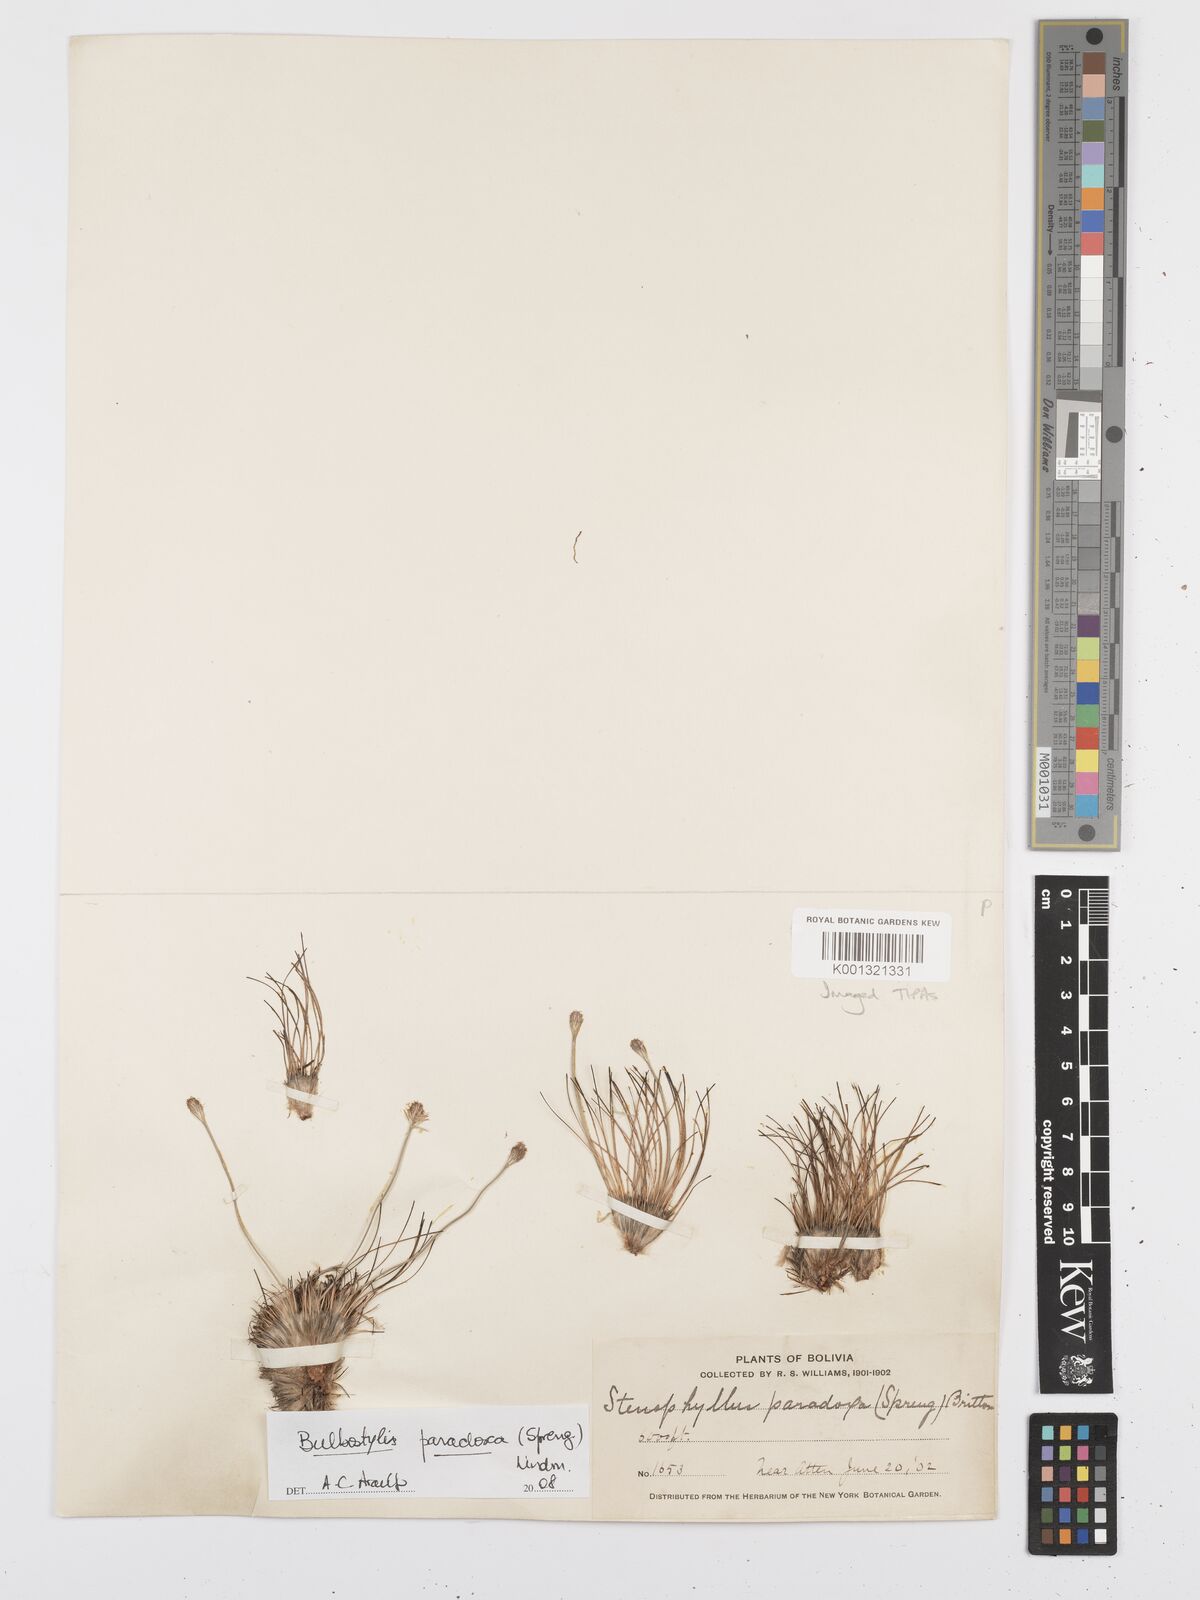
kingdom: Plantae
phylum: Tracheophyta
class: Liliopsida
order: Poales
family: Cyperaceae
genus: Bulbostylis
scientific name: Bulbostylis paradoxa
